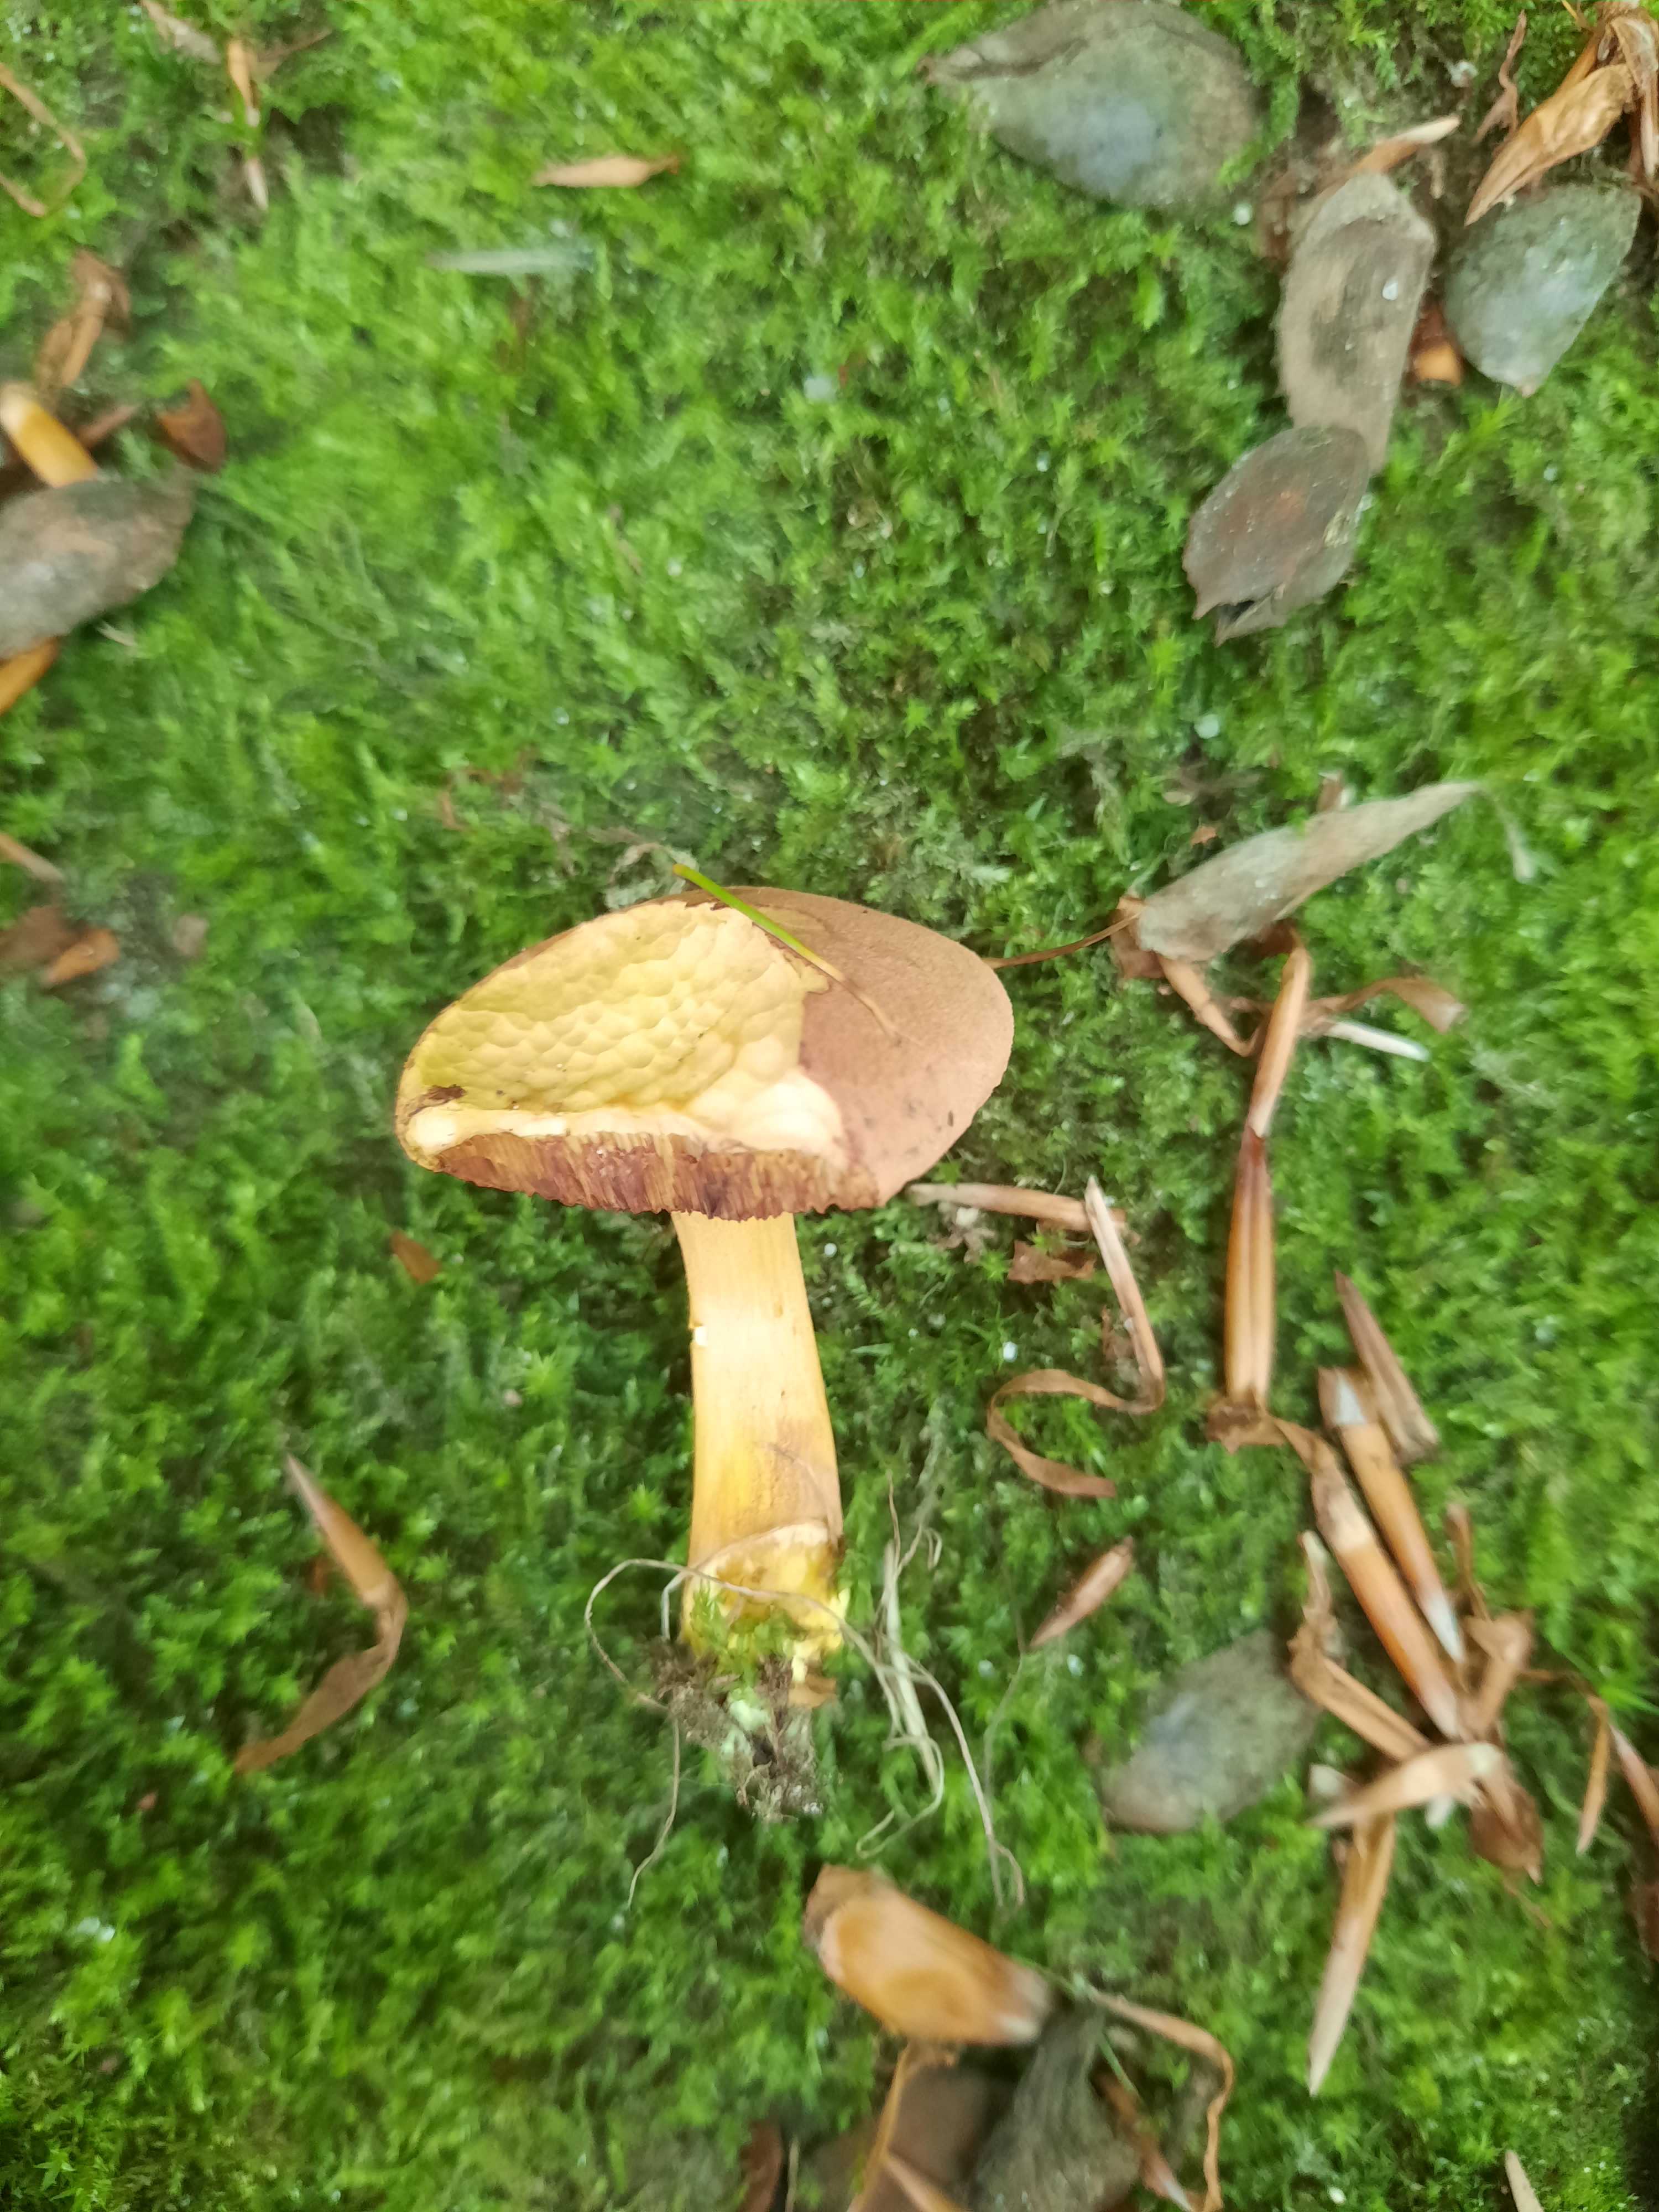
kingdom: Fungi
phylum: Basidiomycota
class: Agaricomycetes
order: Boletales
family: Boletaceae
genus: Chalciporus
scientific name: Chalciporus piperatus
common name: peberrørhat
